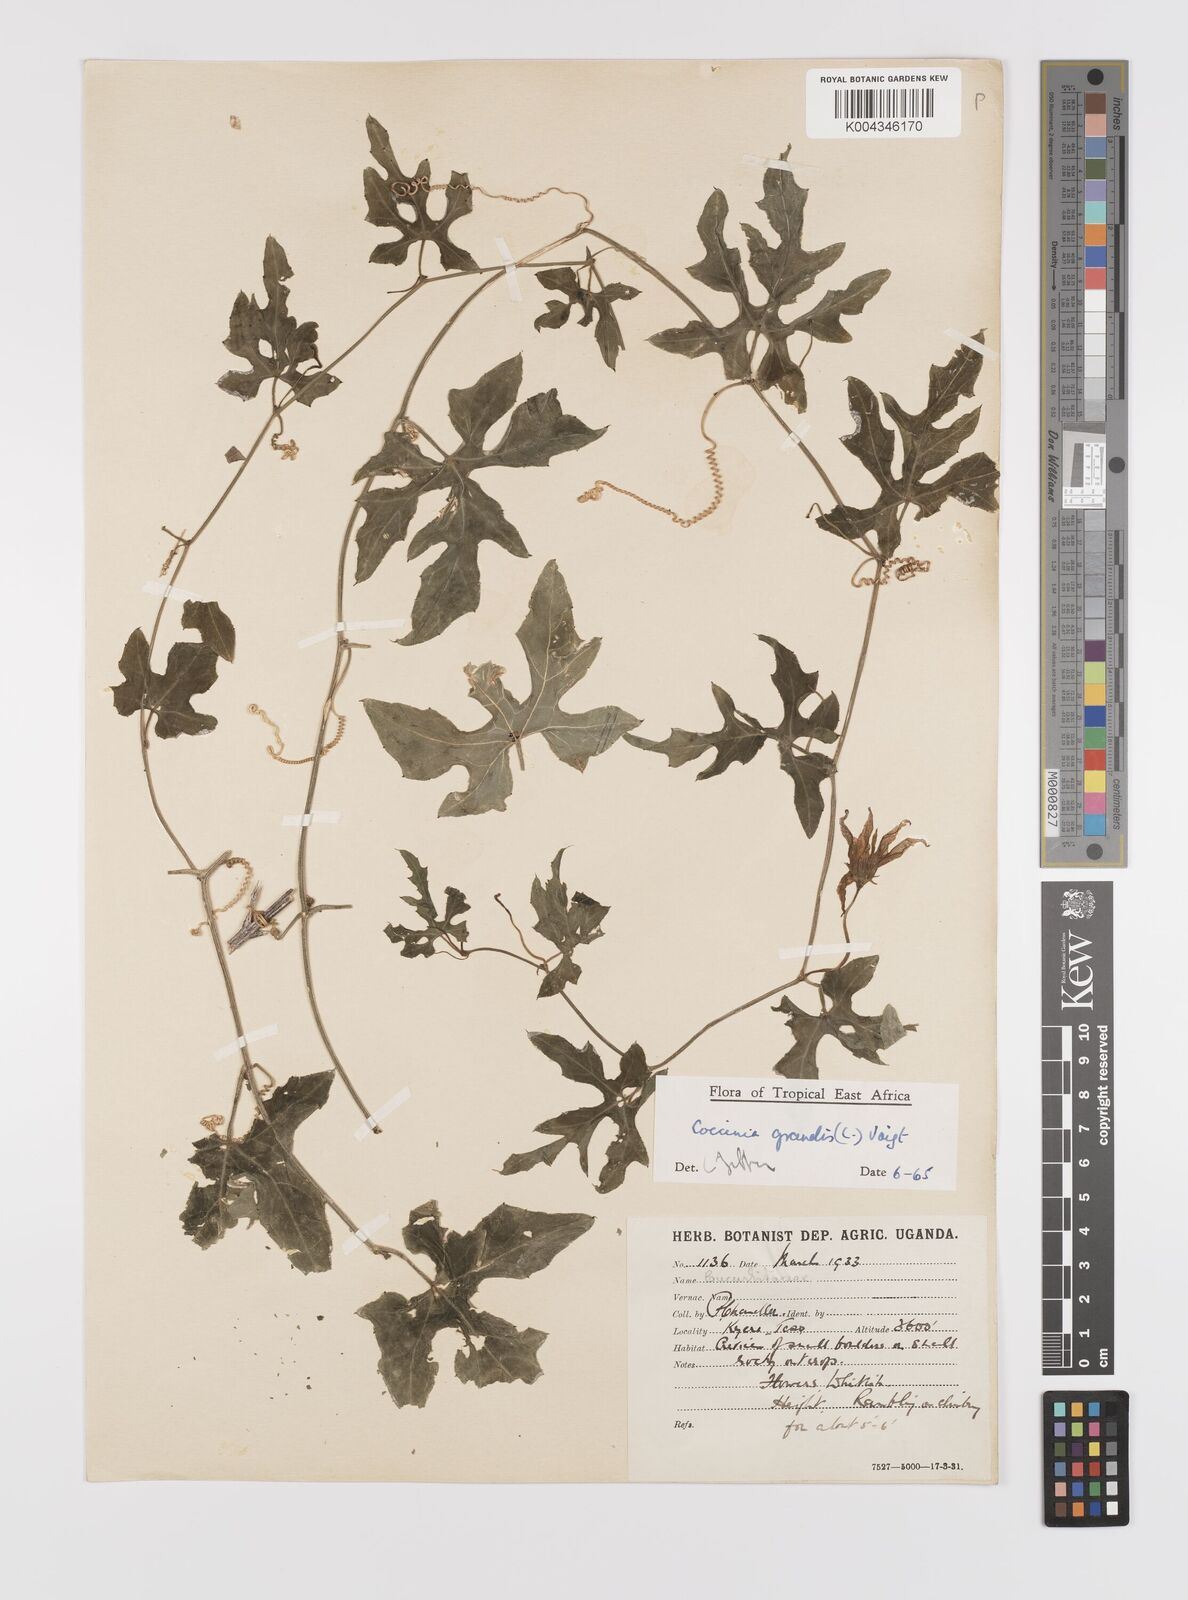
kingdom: Plantae
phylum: Tracheophyta
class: Magnoliopsida
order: Cucurbitales
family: Cucurbitaceae
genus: Coccinia
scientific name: Coccinia grandis
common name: Ivy gourd
